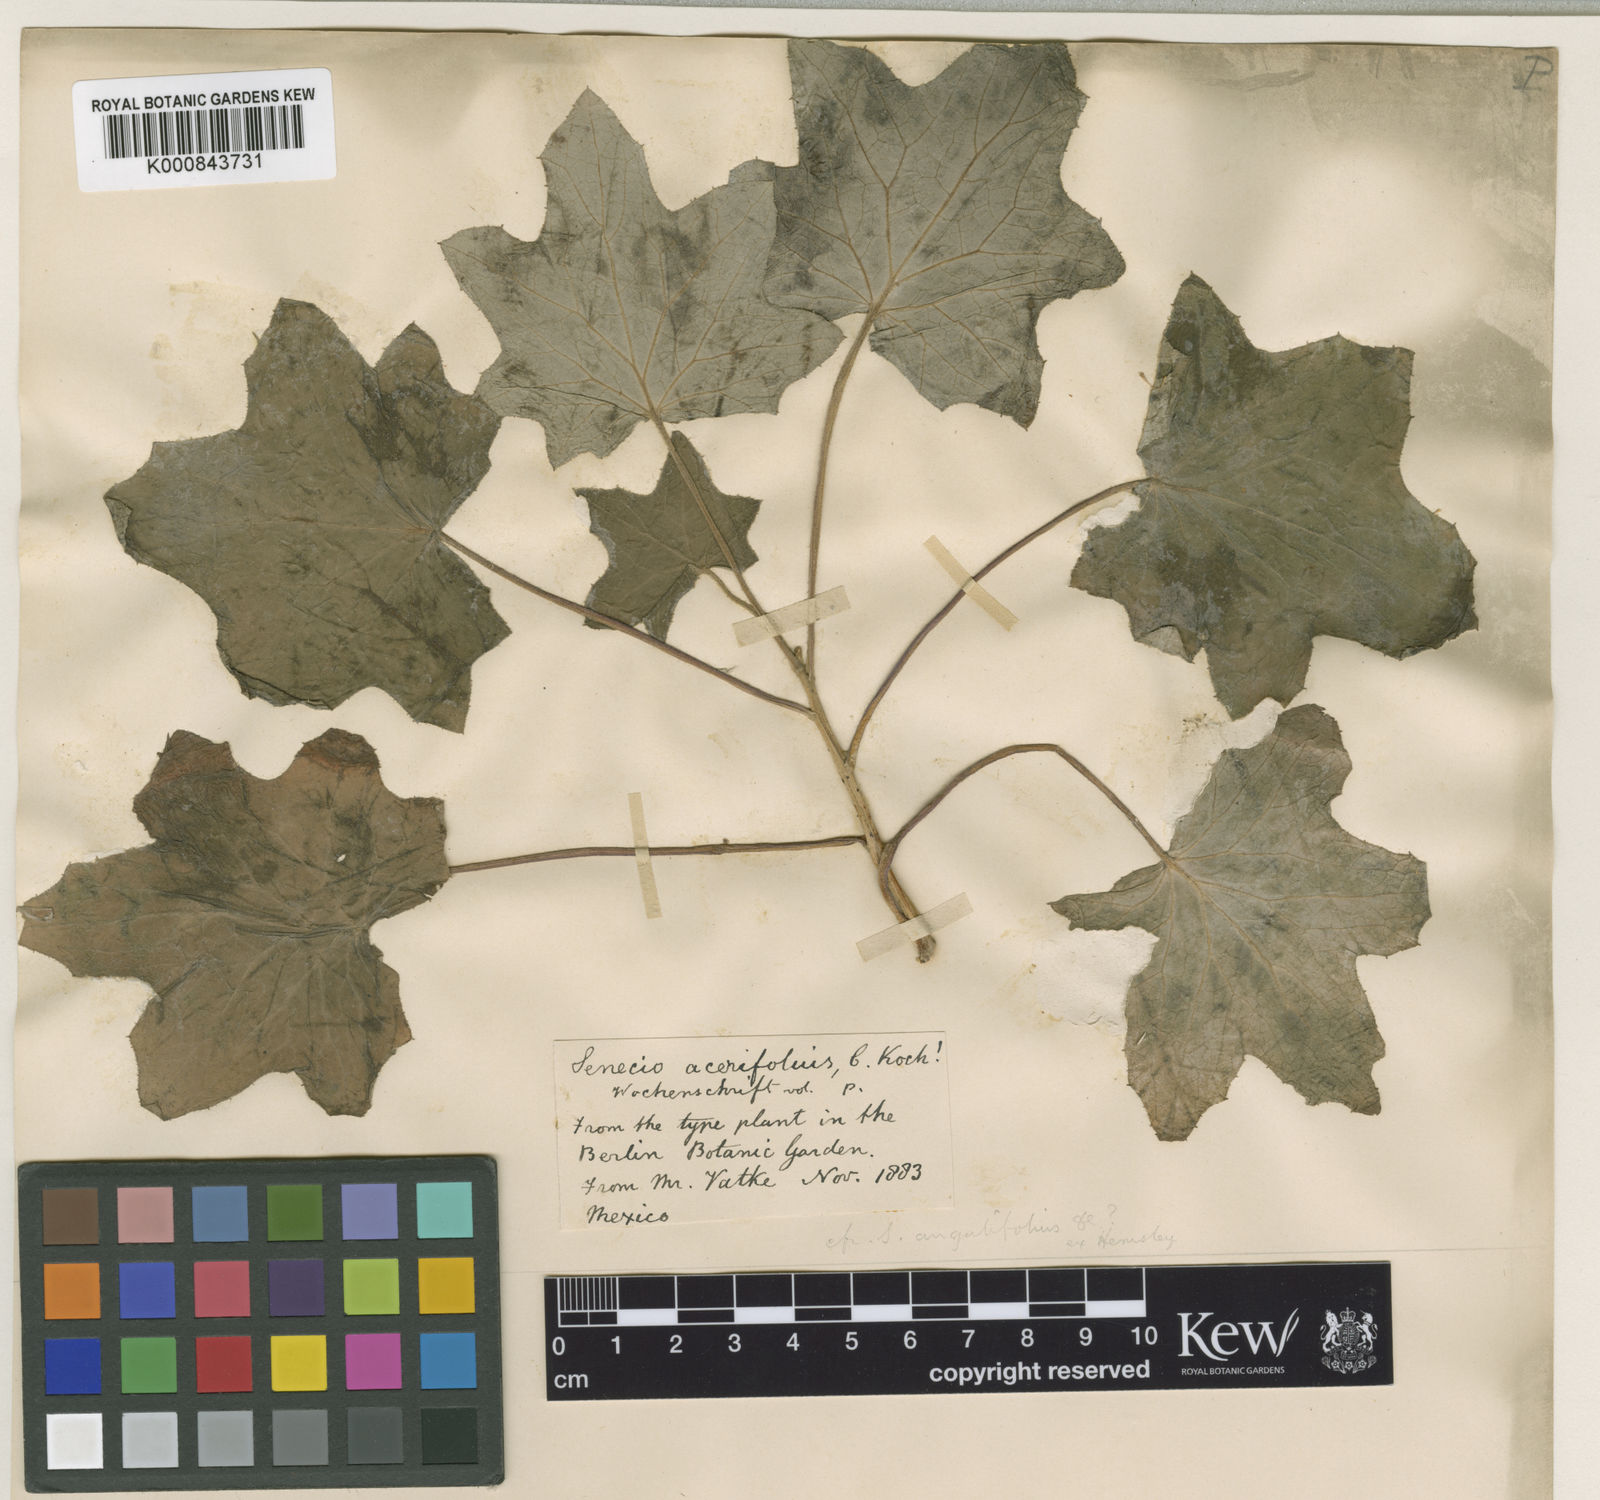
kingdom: Plantae
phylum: Tracheophyta
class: Magnoliopsida
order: Asterales
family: Asteraceae
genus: Roldana
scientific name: Roldana angulifolia
